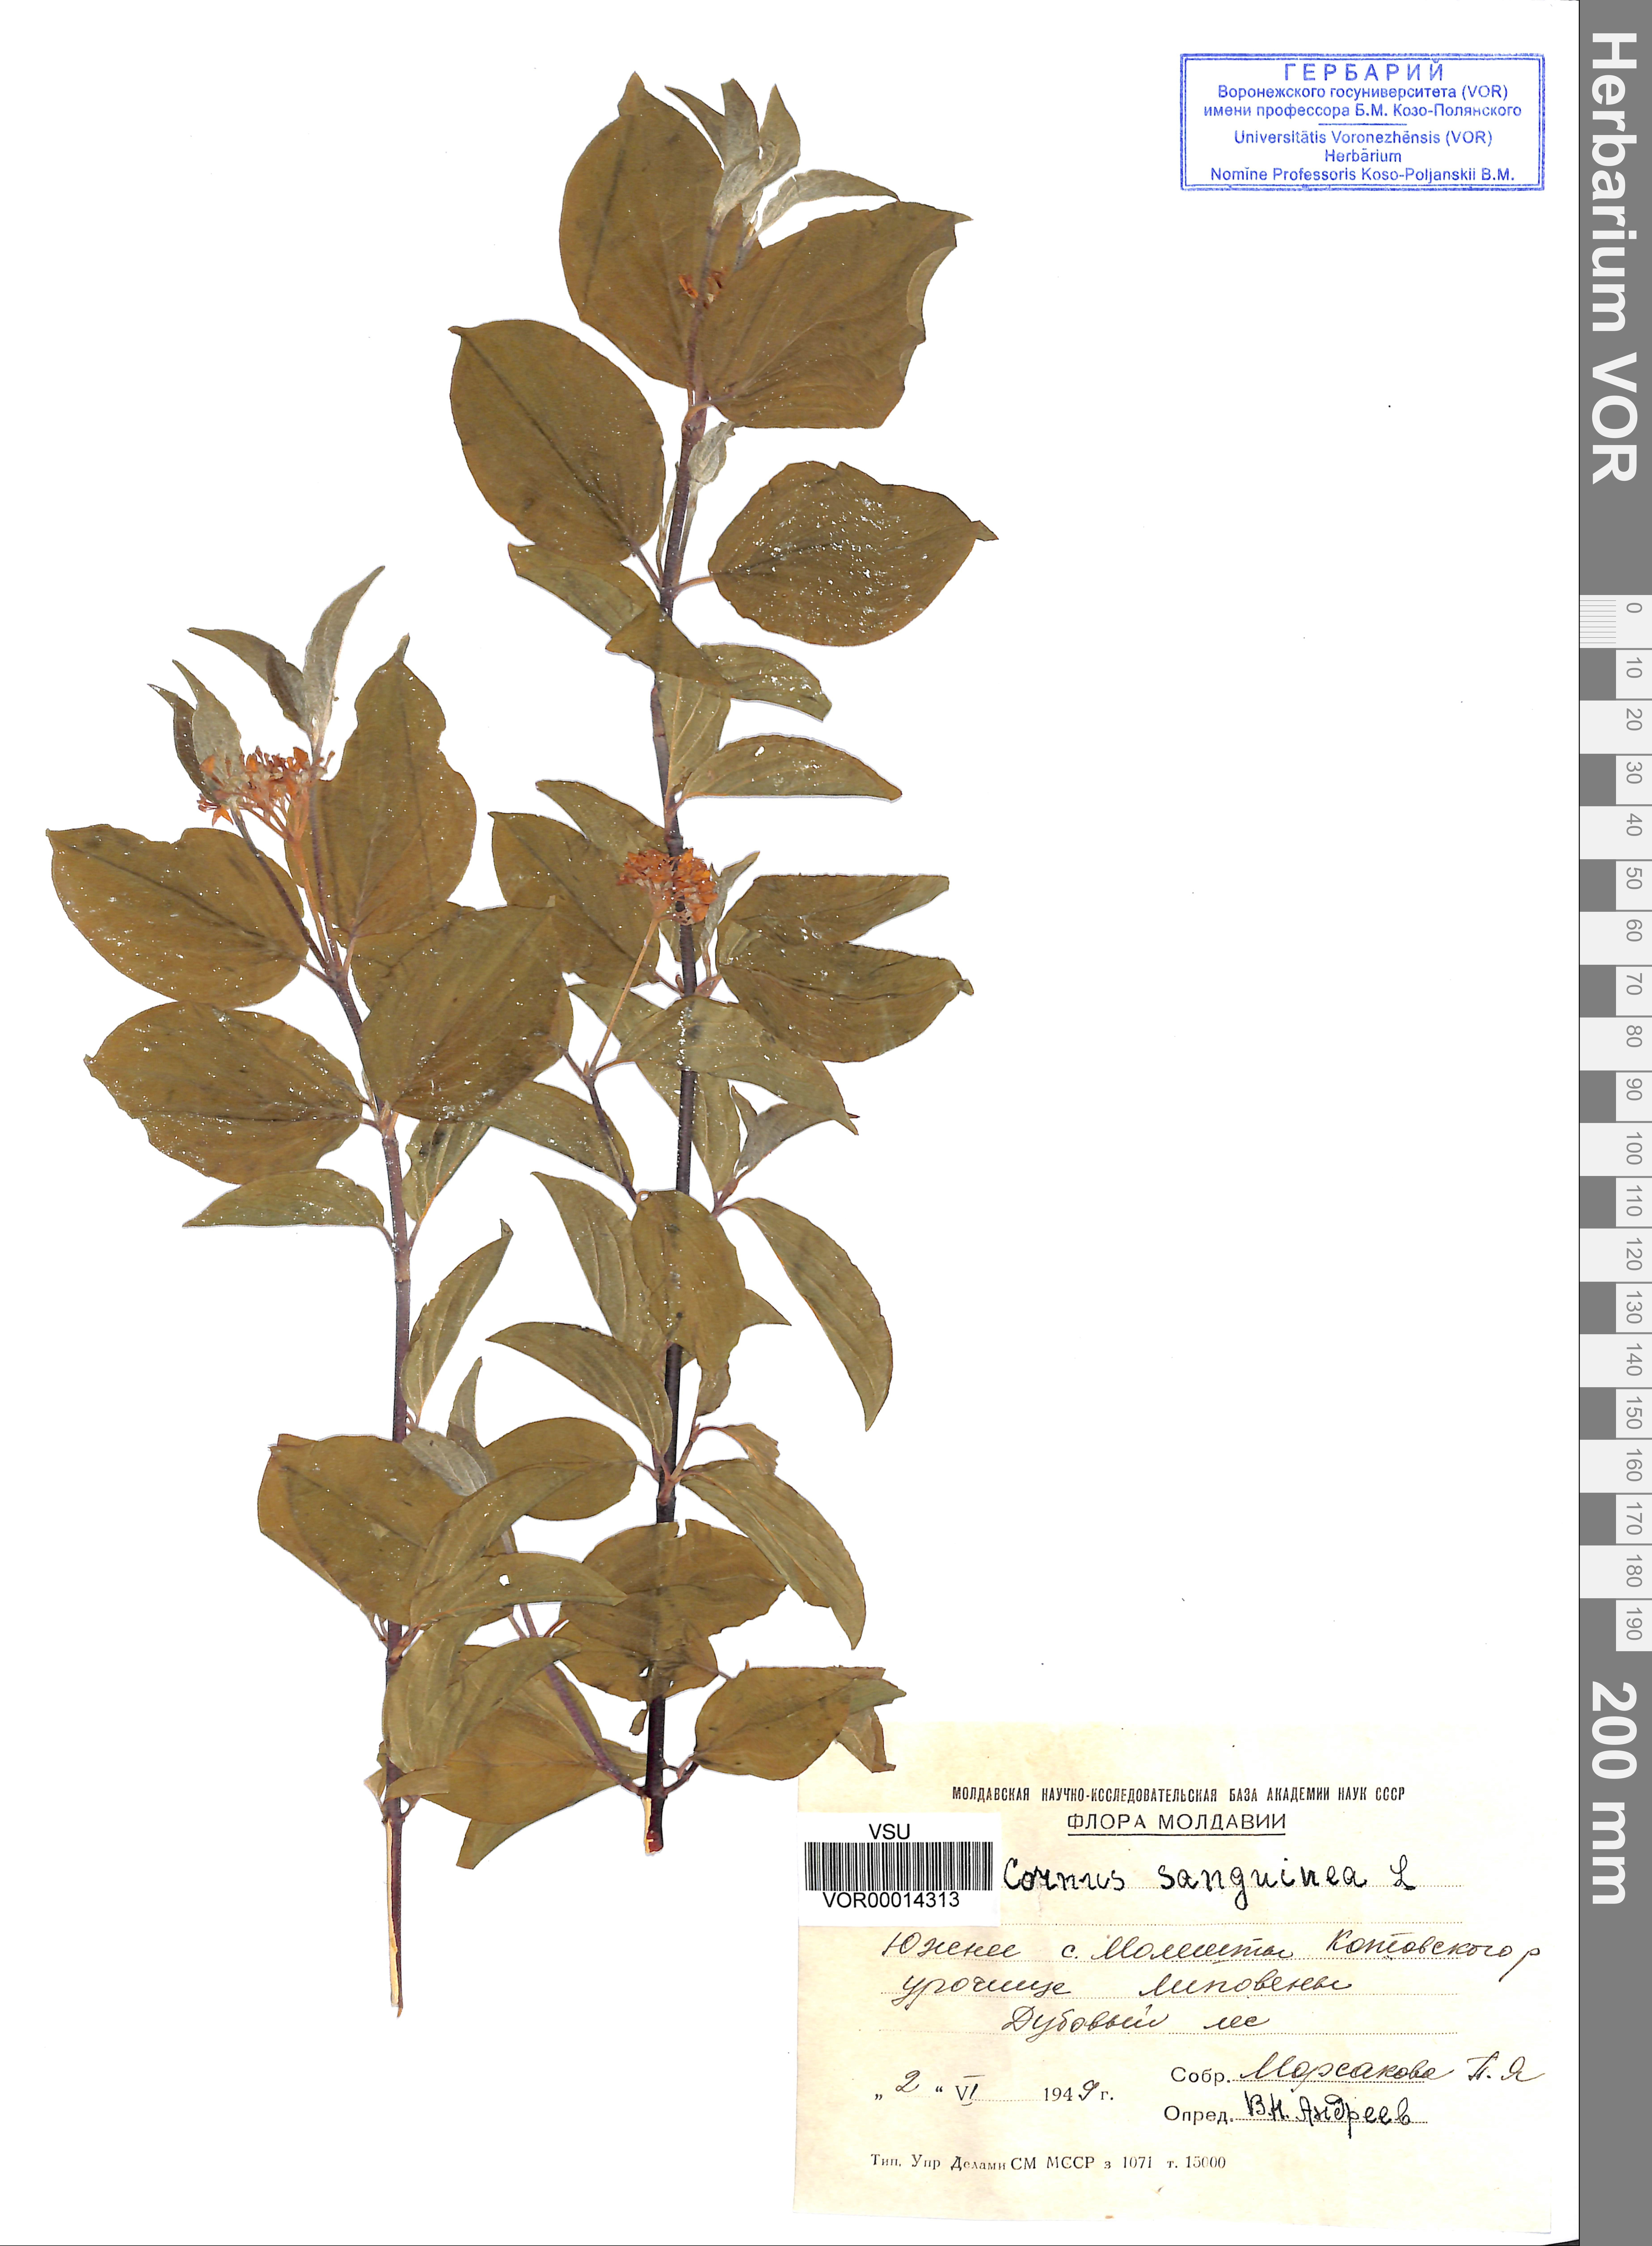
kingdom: Plantae
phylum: Tracheophyta
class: Magnoliopsida
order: Cornales
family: Cornaceae
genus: Cornus
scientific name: Cornus sanguinea
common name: Dogwood
